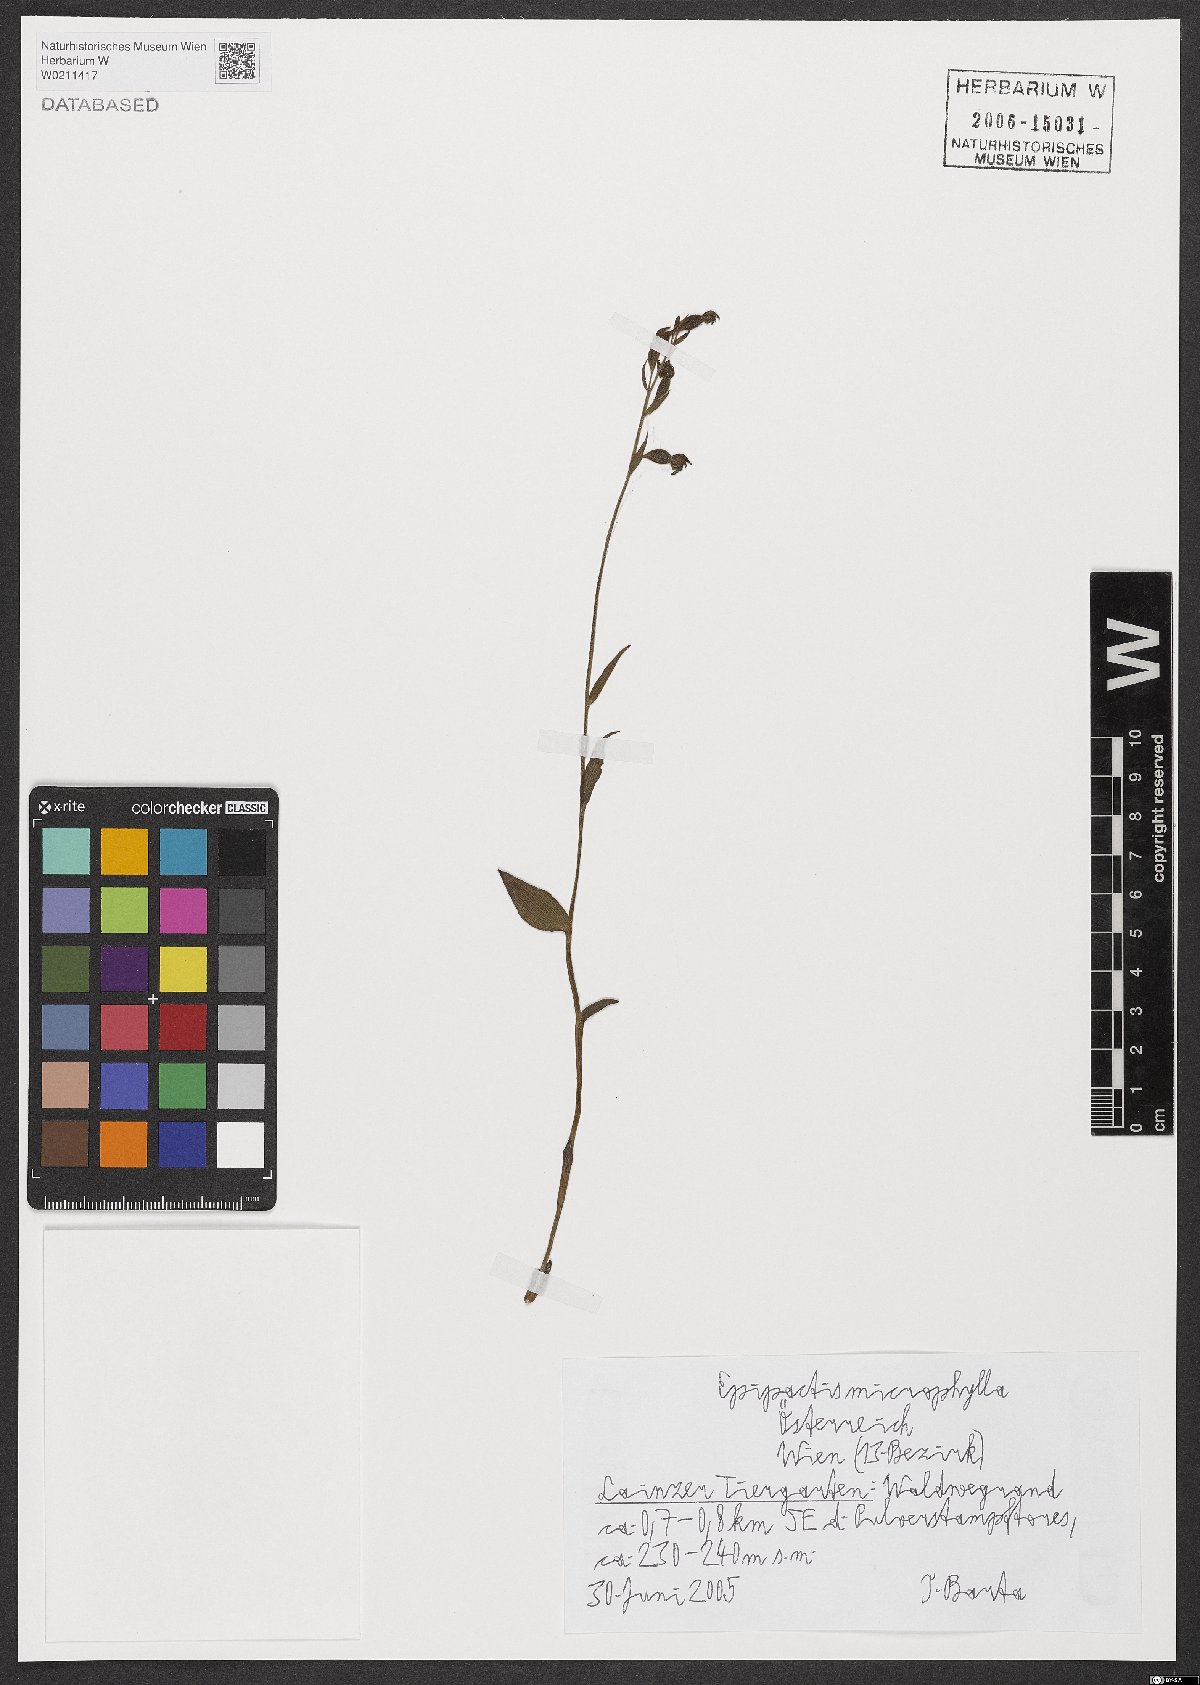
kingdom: Plantae
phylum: Tracheophyta
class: Liliopsida
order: Asparagales
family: Orchidaceae
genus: Epipactis
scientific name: Epipactis microphylla
